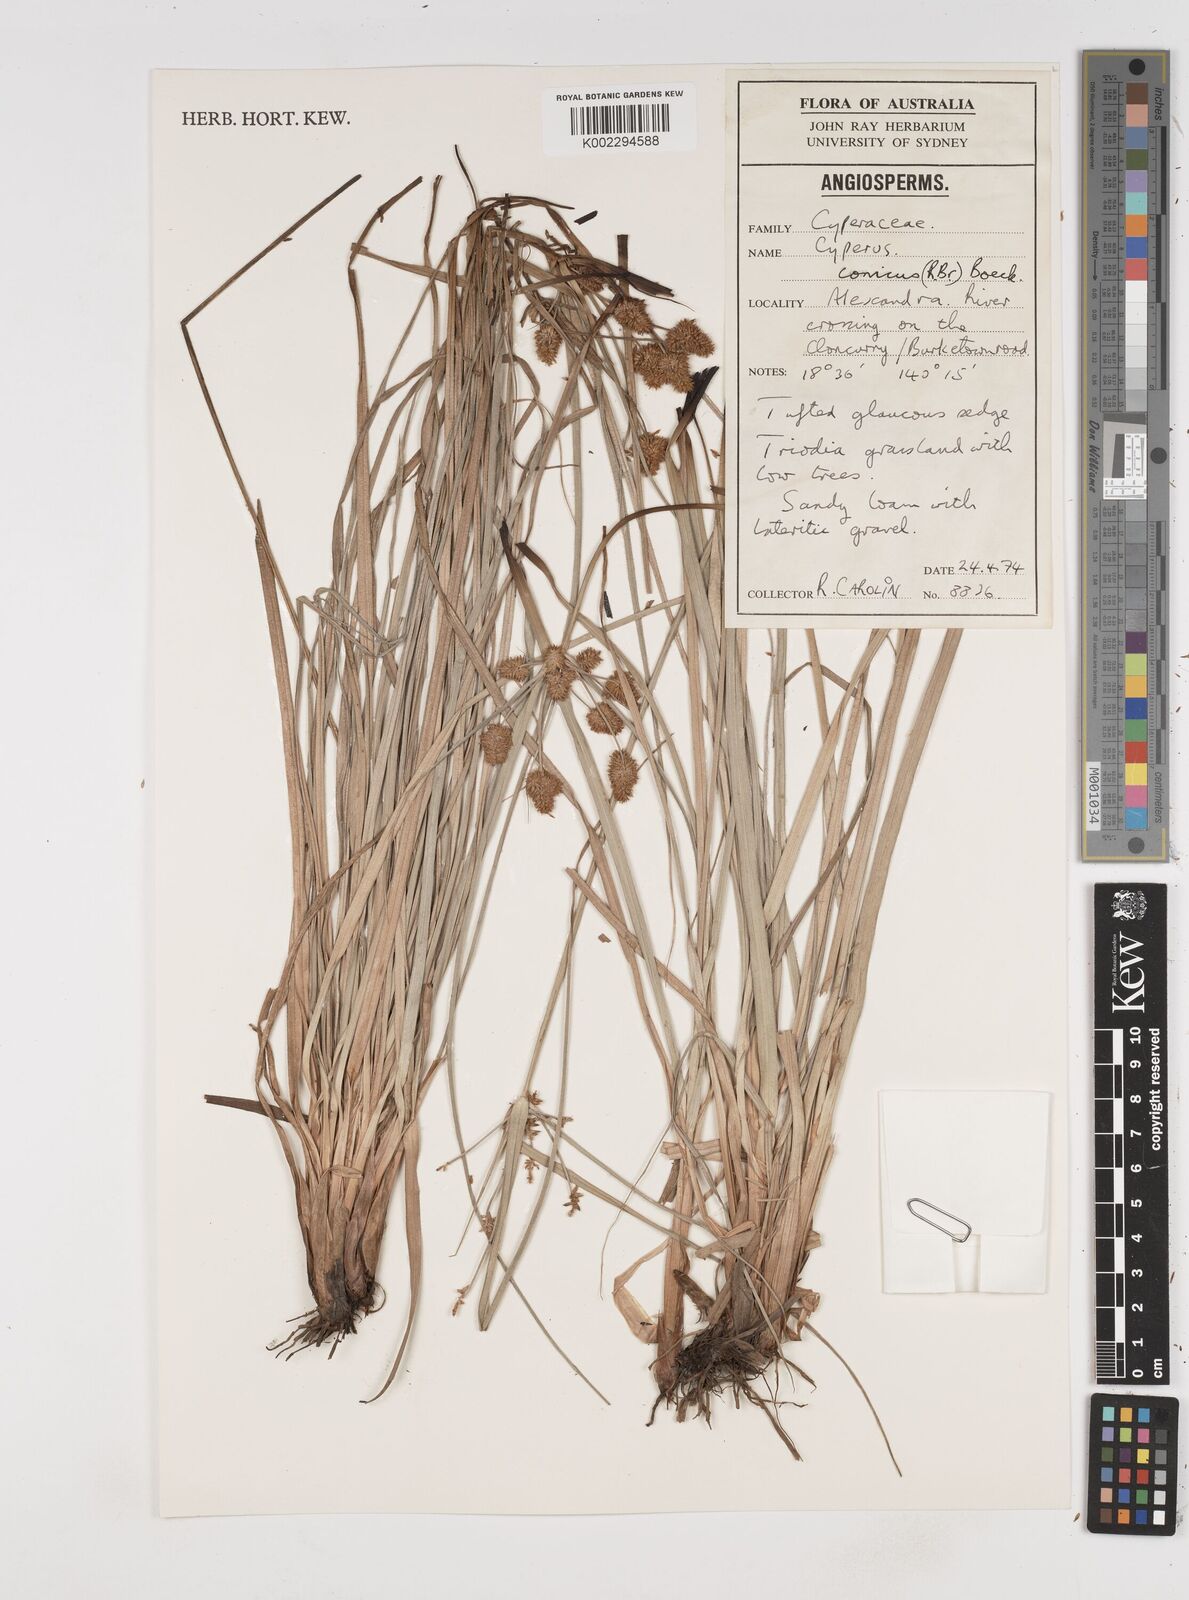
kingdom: Plantae
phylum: Tracheophyta
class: Liliopsida
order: Poales
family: Cyperaceae
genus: Cyperus
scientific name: Cyperus conicus
